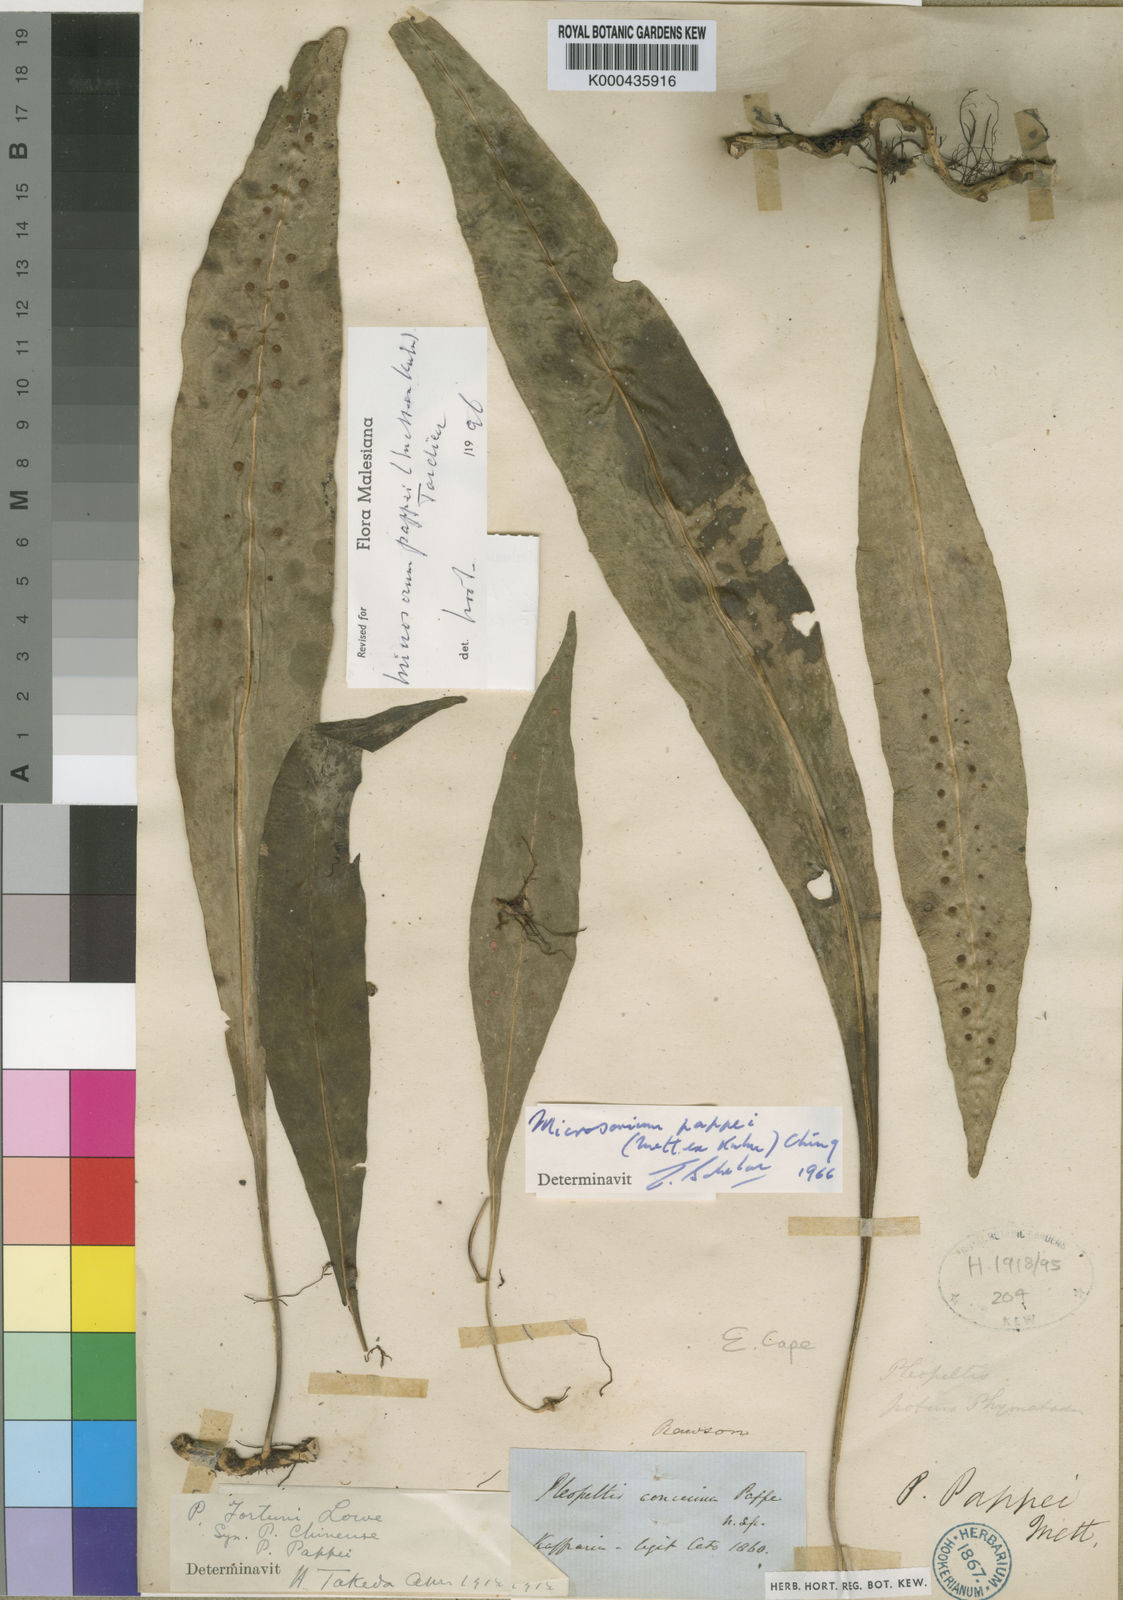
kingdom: Plantae
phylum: Tracheophyta
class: Polypodiopsida
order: Polypodiales
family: Polypodiaceae
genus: Microsorum
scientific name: Microsorum pappei
